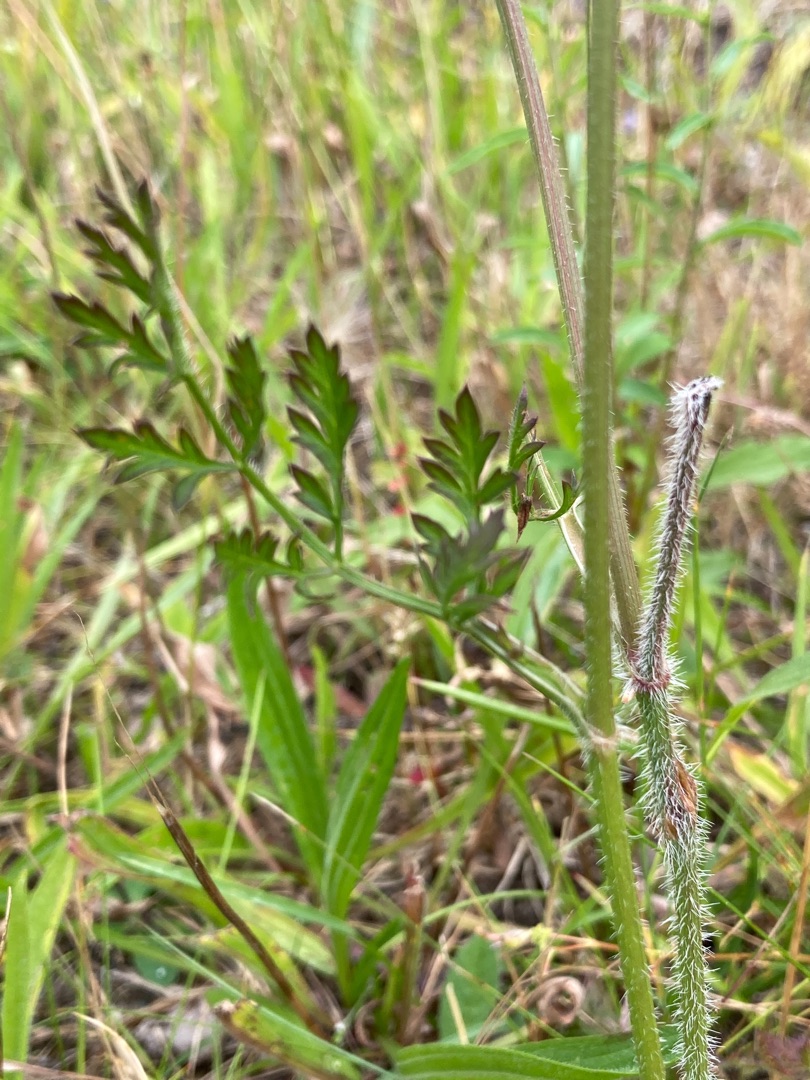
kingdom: Plantae
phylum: Tracheophyta
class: Magnoliopsida
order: Apiales
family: Apiaceae
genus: Daucus
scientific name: Daucus carota
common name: Vild gulerod
